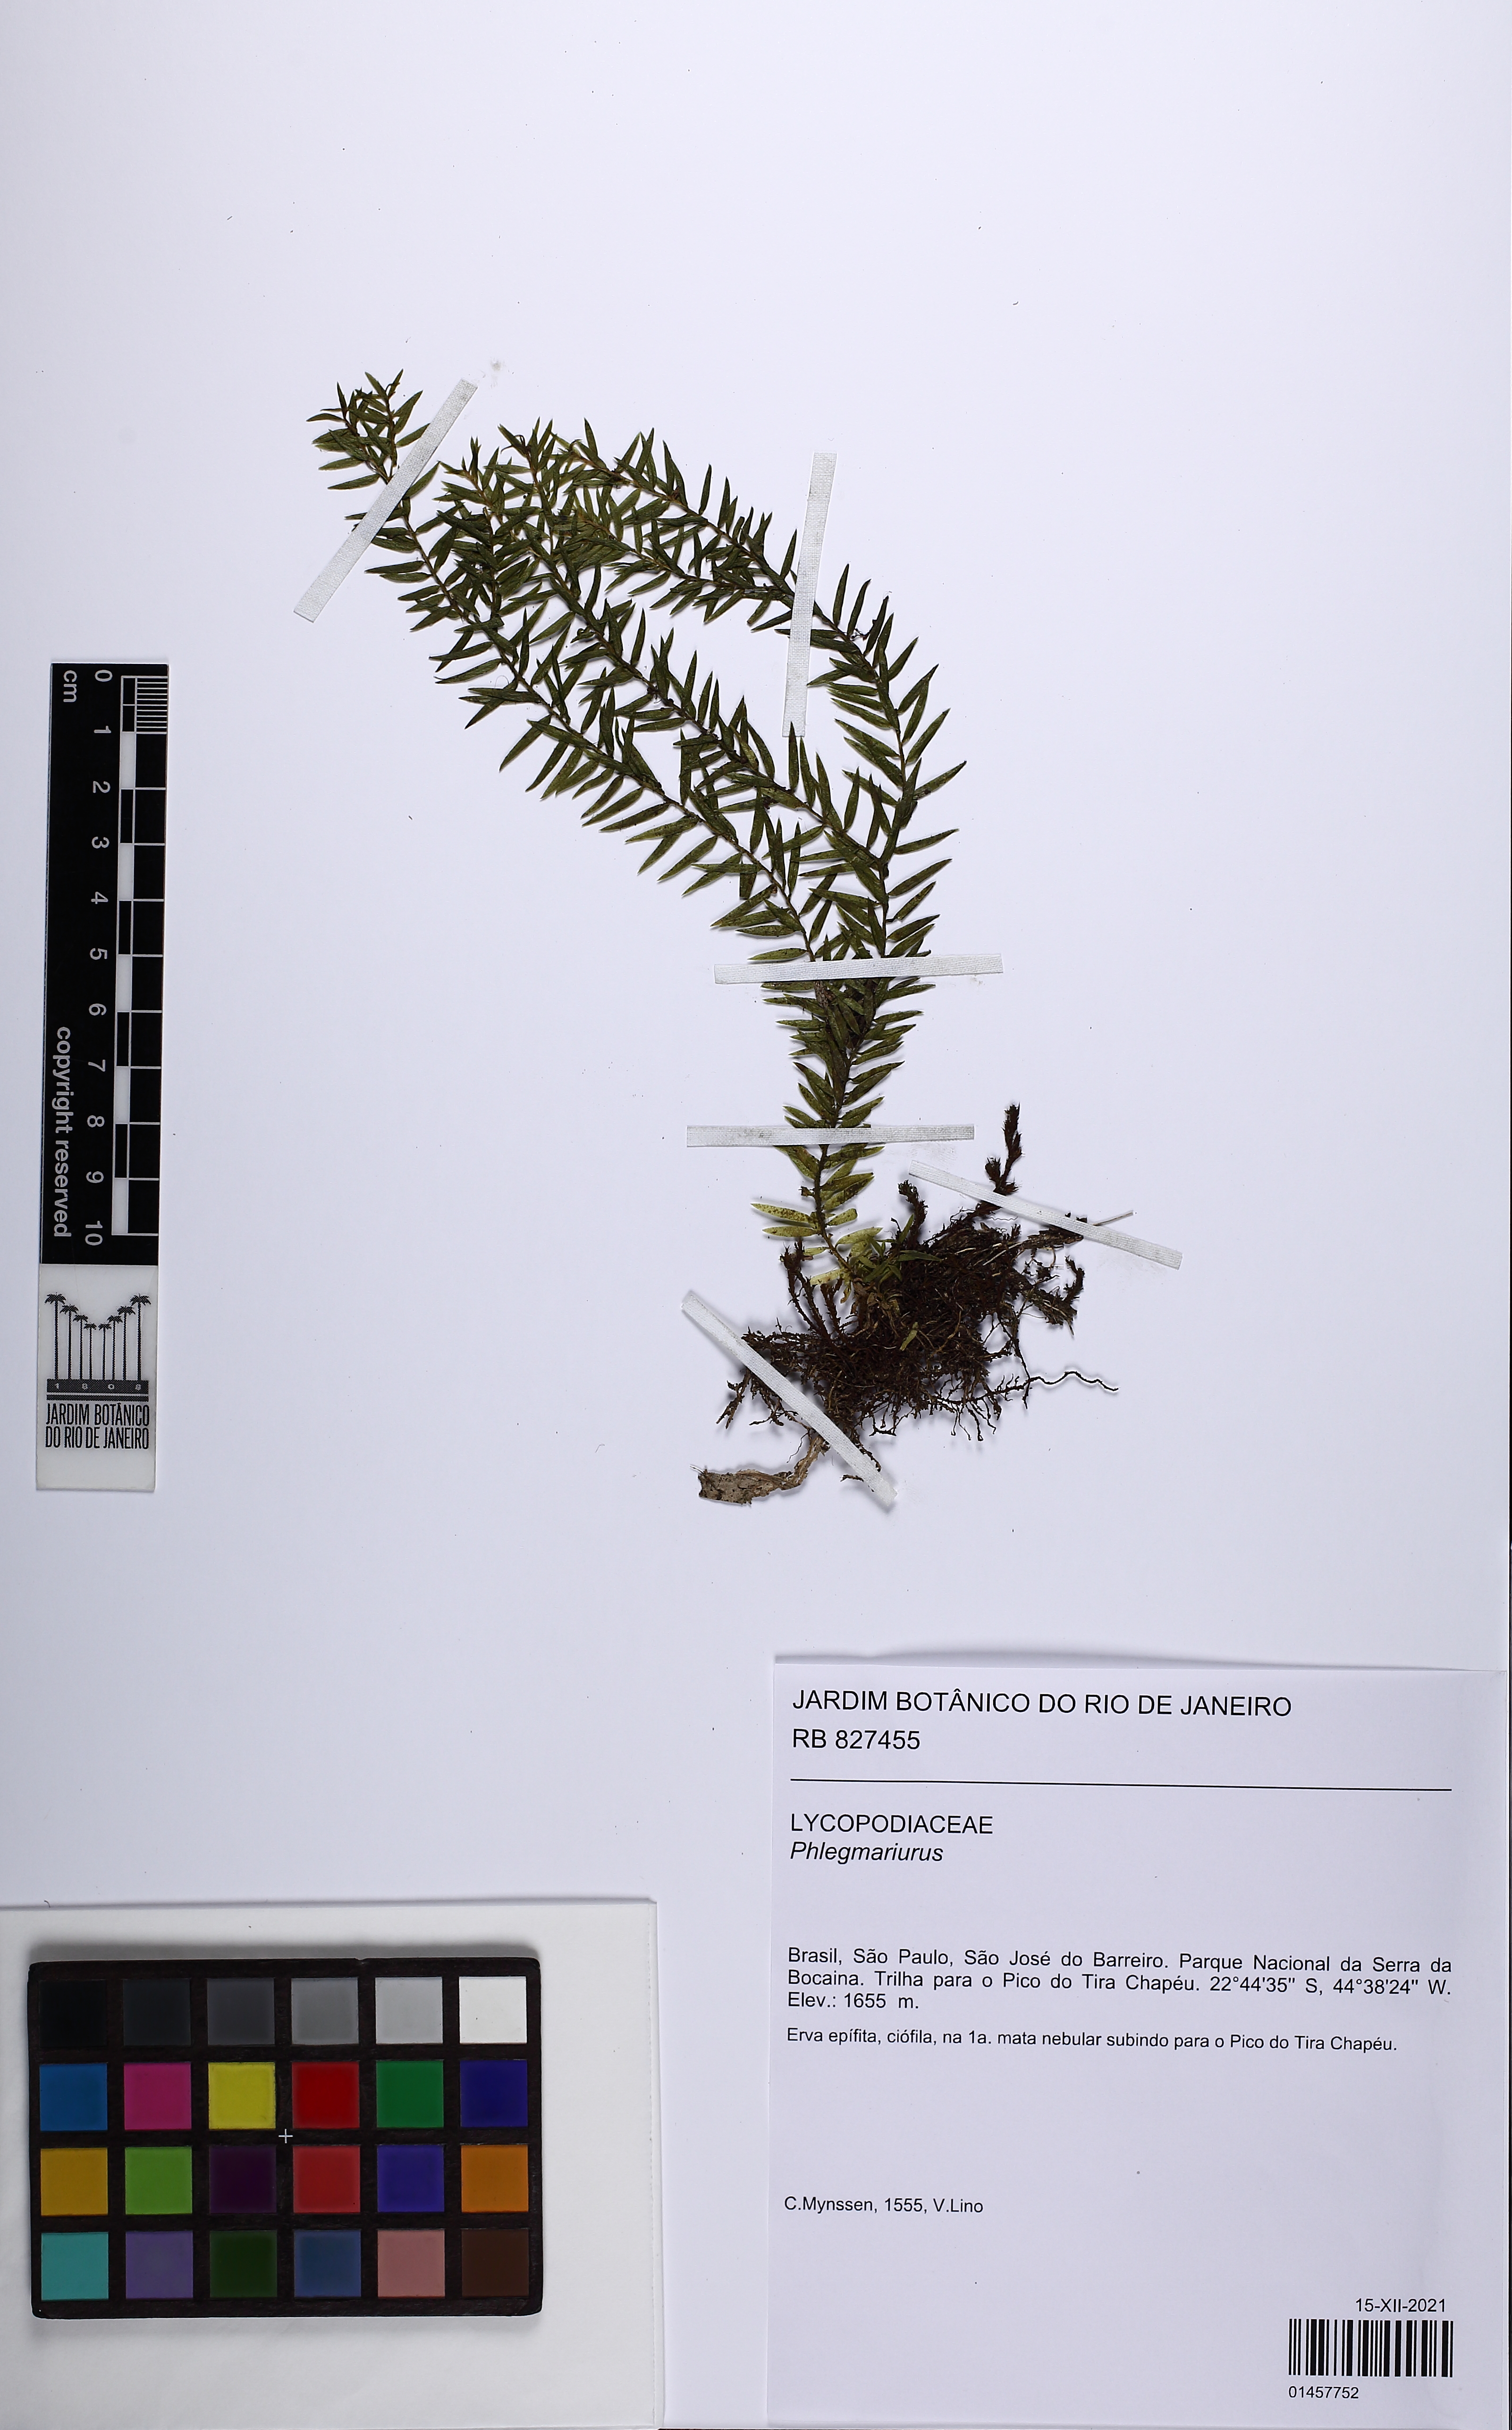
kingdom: Plantae
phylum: Tracheophyta
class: Lycopodiopsida
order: Lycopodiales
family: Lycopodiaceae
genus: Phlegmariurus
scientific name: Phlegmariurus
